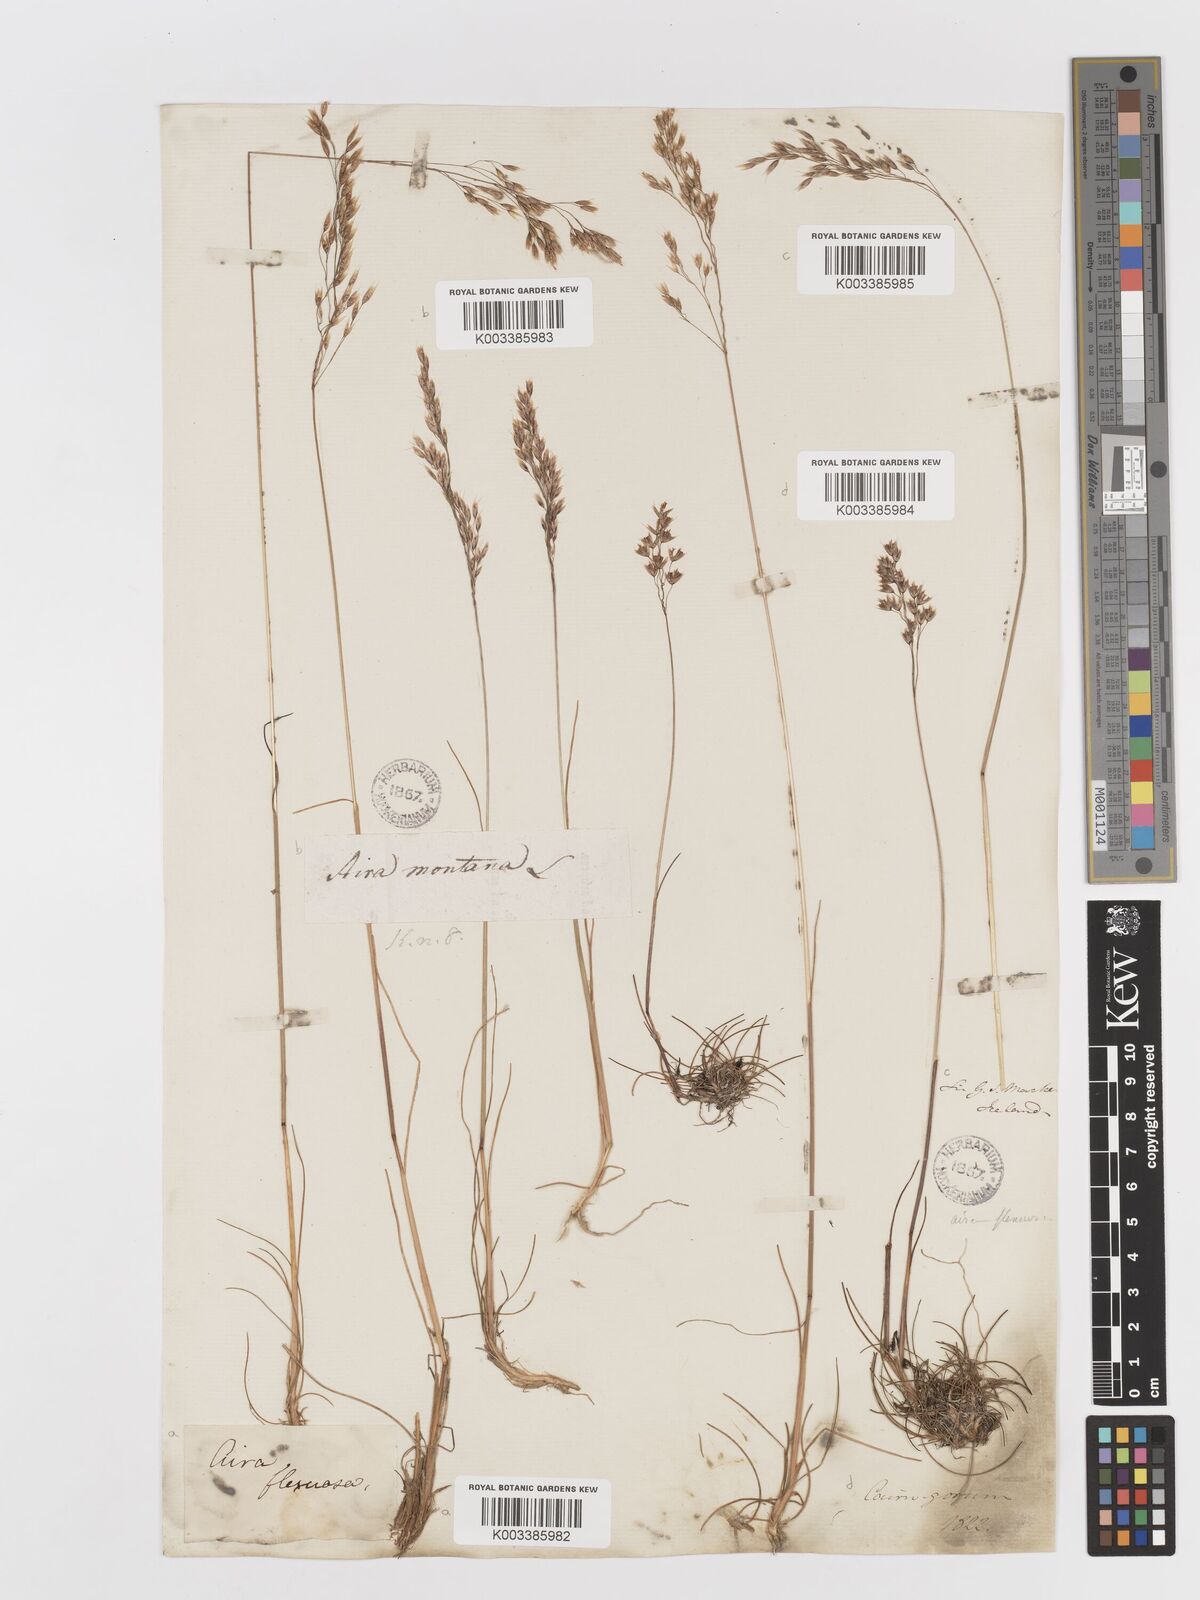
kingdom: Plantae
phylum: Tracheophyta
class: Liliopsida
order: Poales
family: Poaceae
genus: Avenella
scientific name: Avenella flexuosa
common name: Wavy hairgrass
